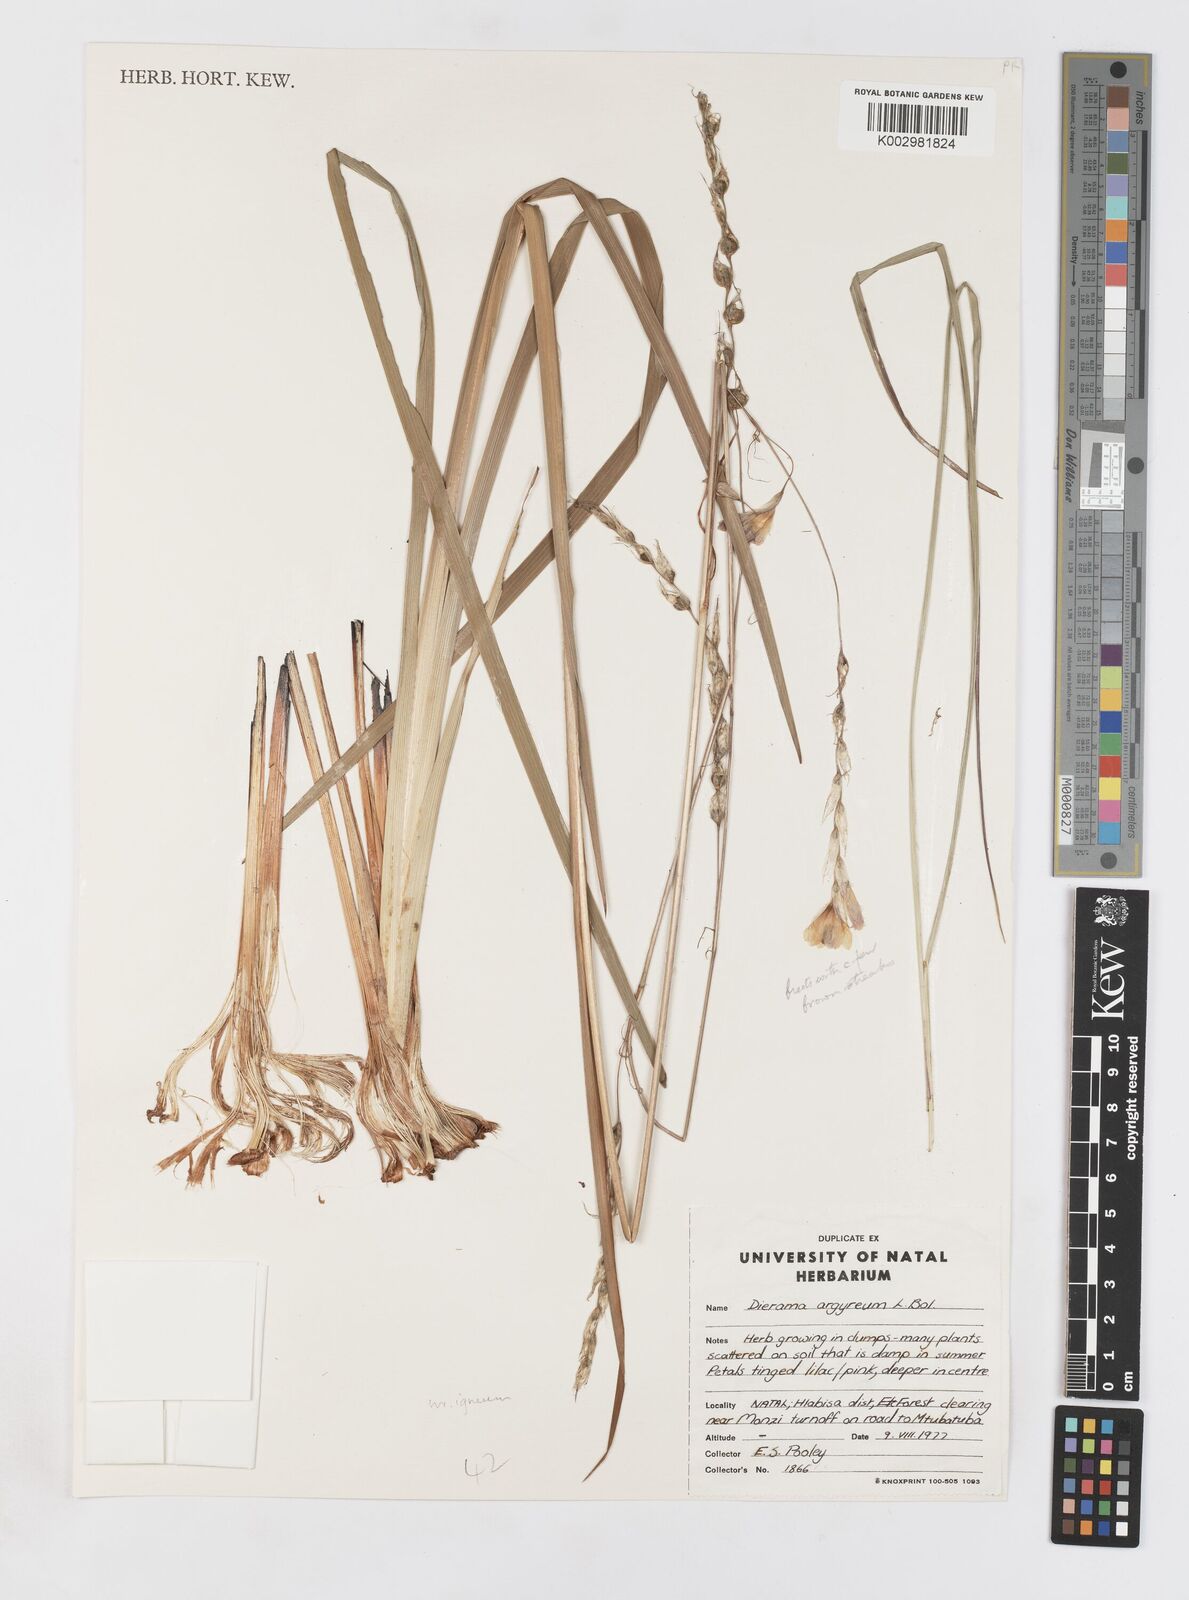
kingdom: Plantae
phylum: Tracheophyta
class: Liliopsida
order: Asparagales
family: Iridaceae
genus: Dierama
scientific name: Dierama igneum
